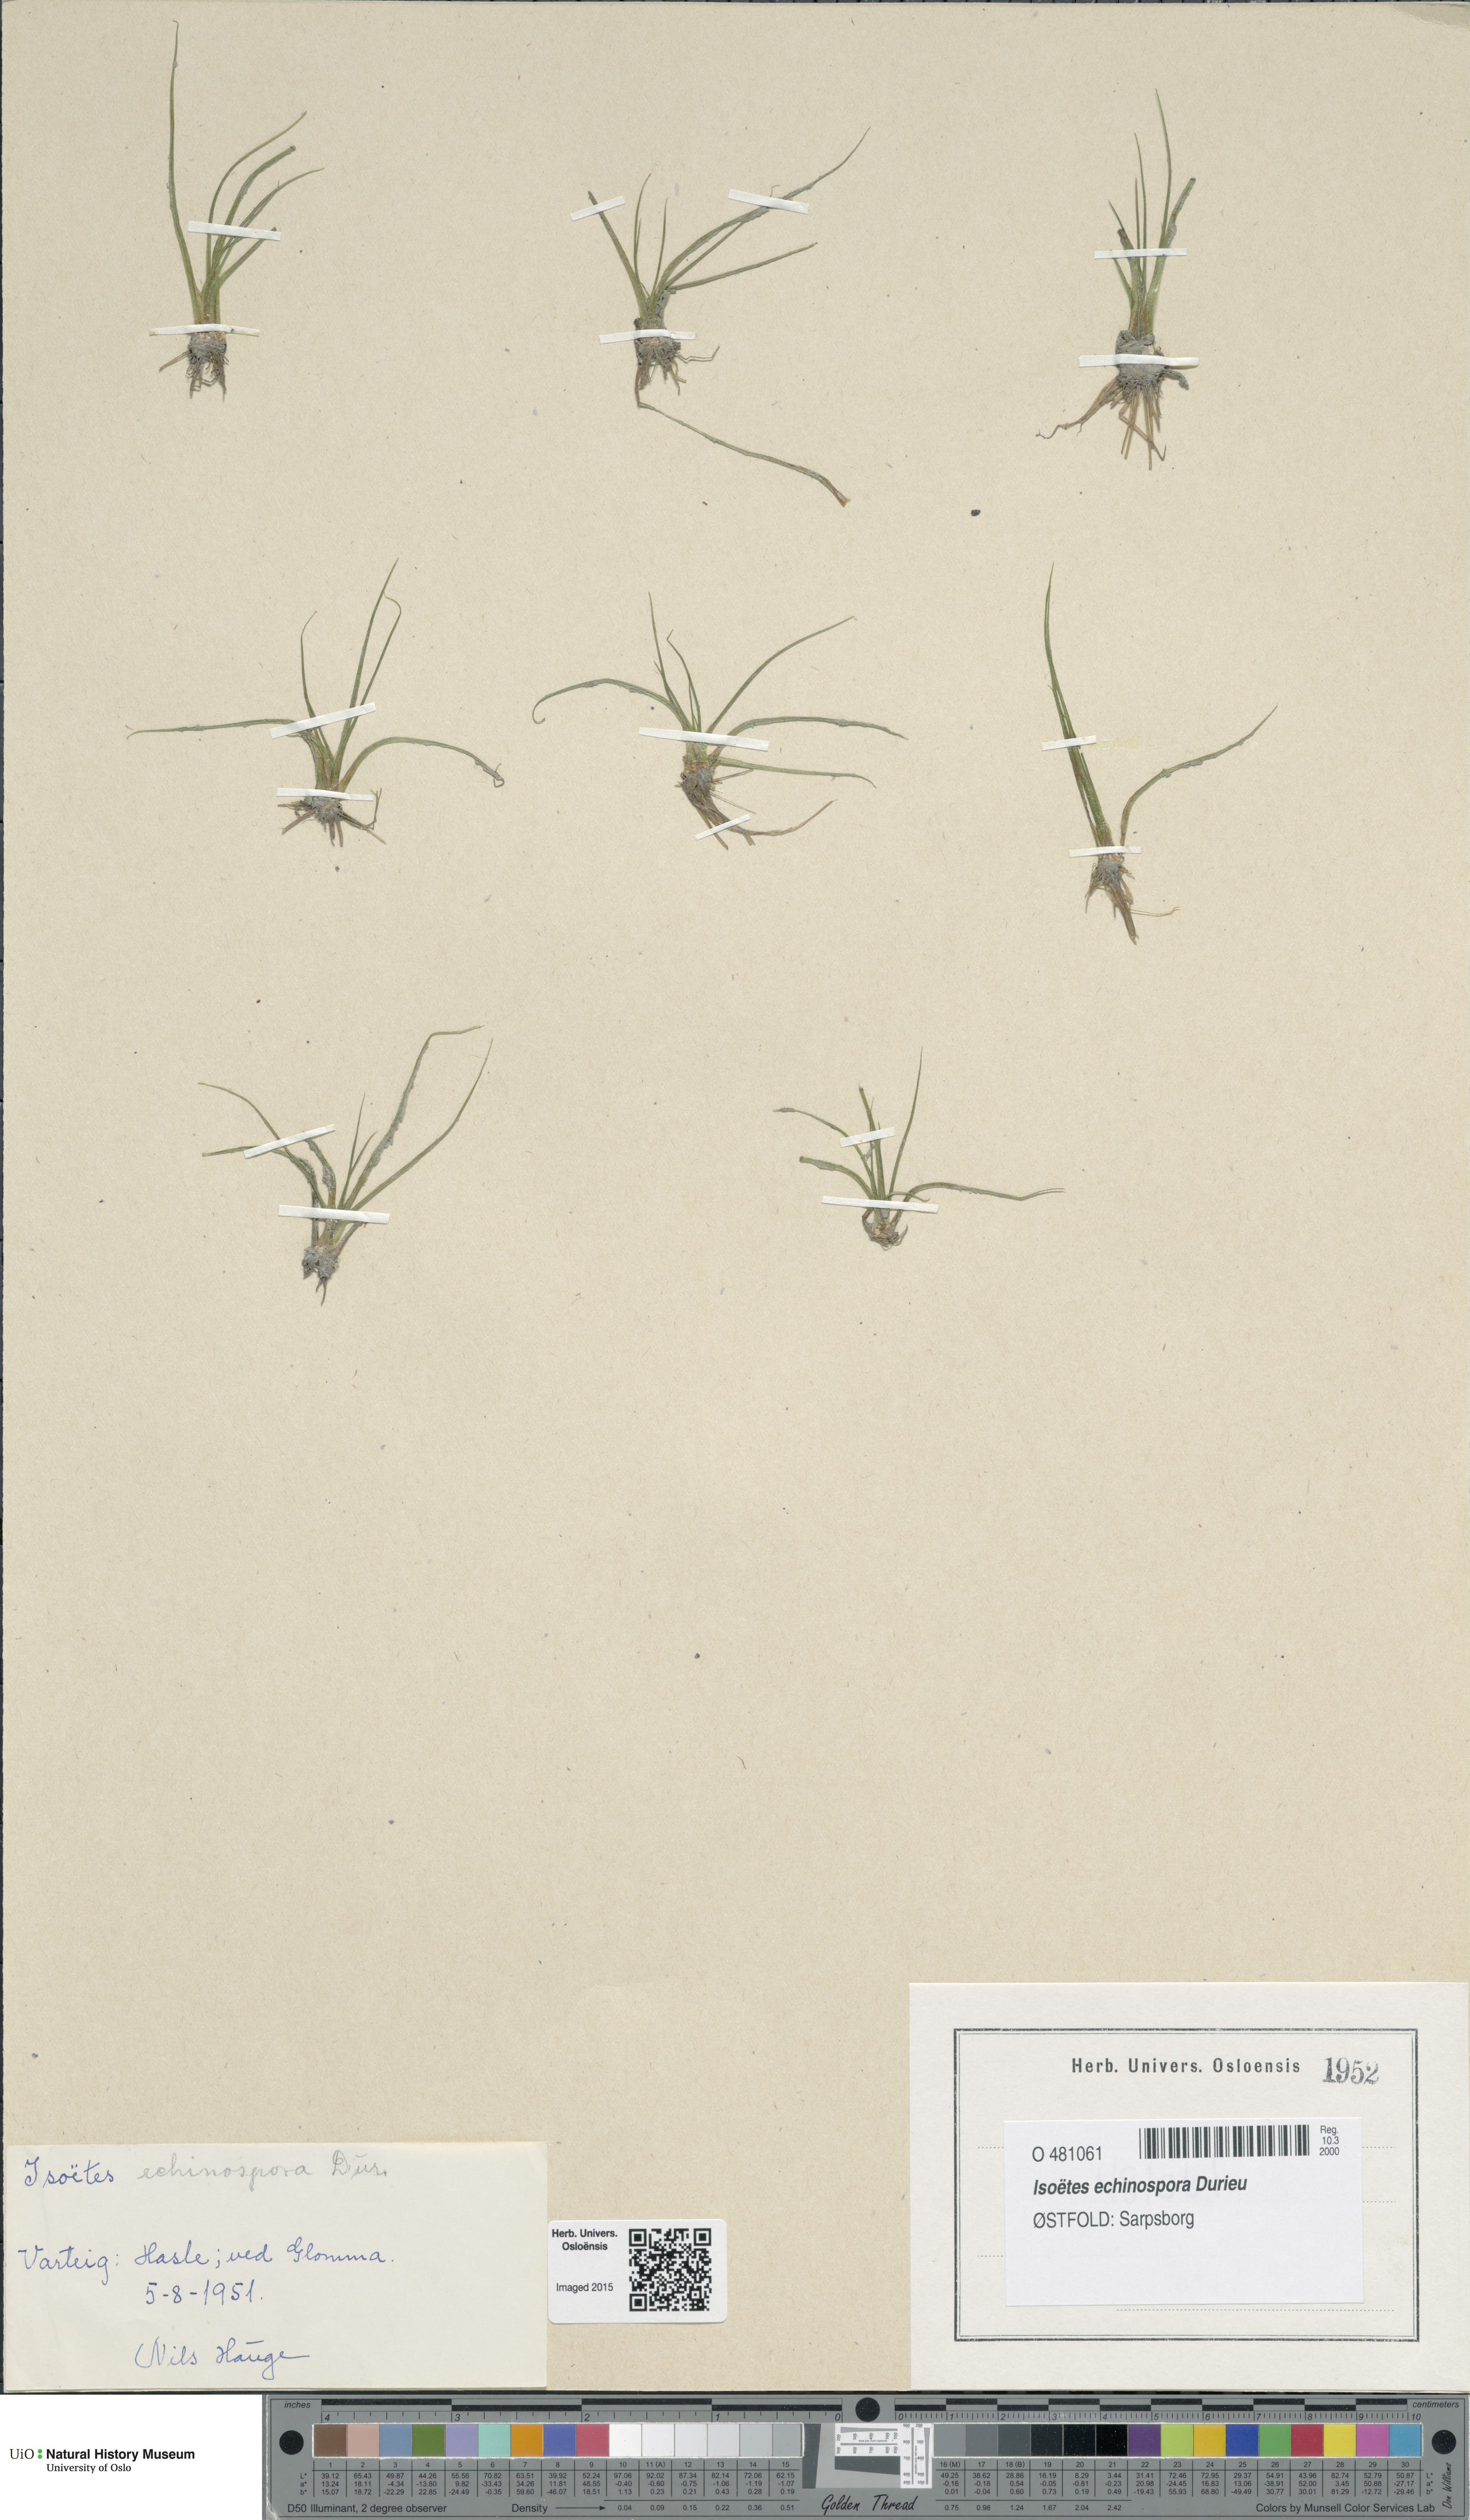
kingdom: Plantae
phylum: Tracheophyta
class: Lycopodiopsida
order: Isoetales
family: Isoetaceae
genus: Isoetes
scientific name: Isoetes echinospora
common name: Spring quillwort
